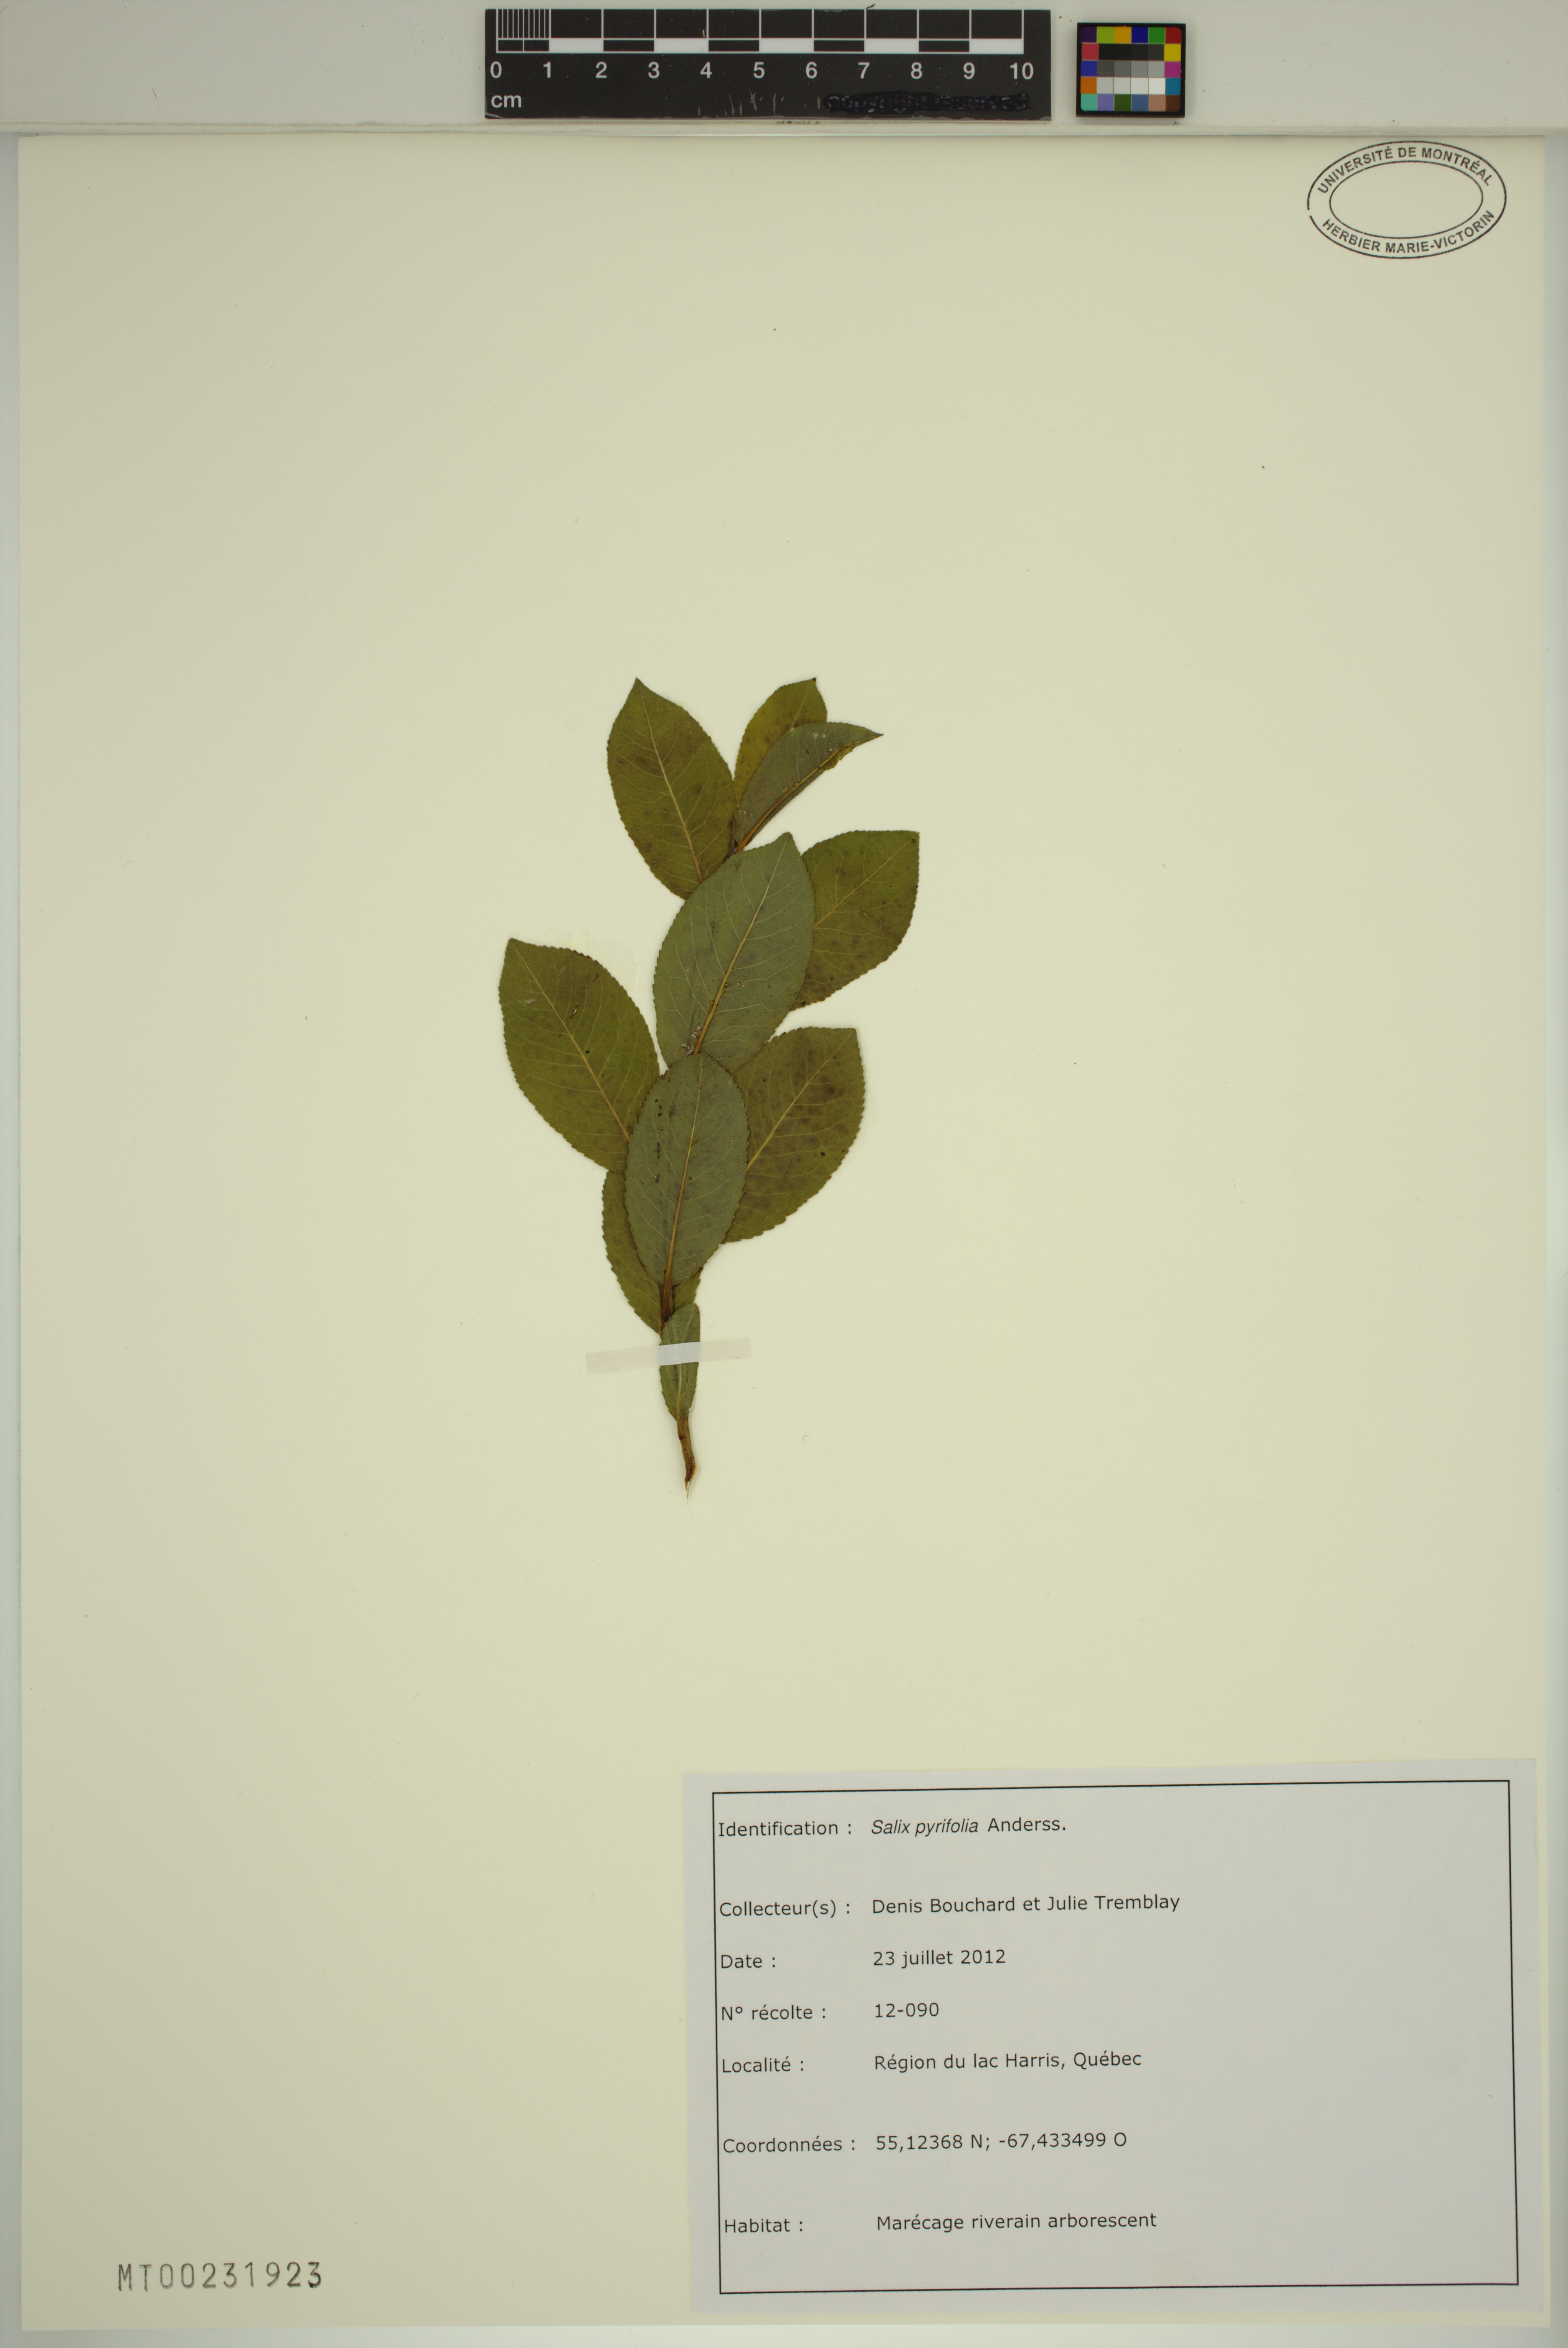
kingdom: Plantae
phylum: Tracheophyta
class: Magnoliopsida
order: Malpighiales
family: Salicaceae
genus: Salix
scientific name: Salix pyrifolia
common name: Balsam willow
